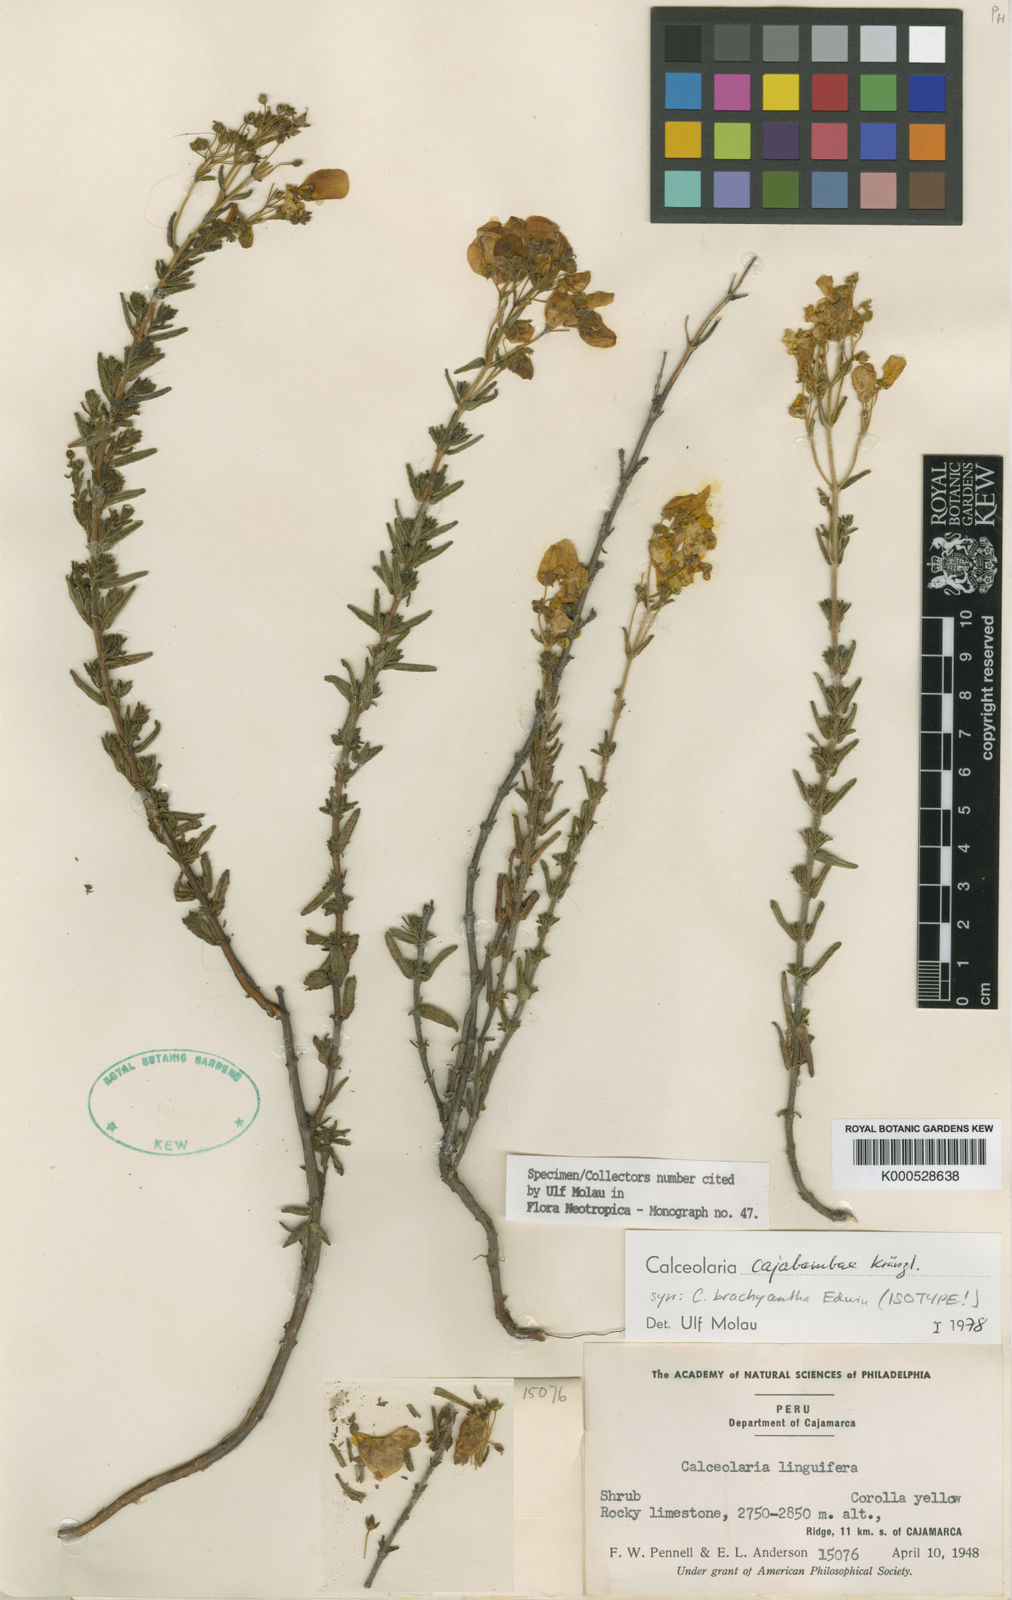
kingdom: Plantae
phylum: Tracheophyta
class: Magnoliopsida
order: Lamiales
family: Calceolariaceae
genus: Calceolaria
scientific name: Calceolaria cajabambae
